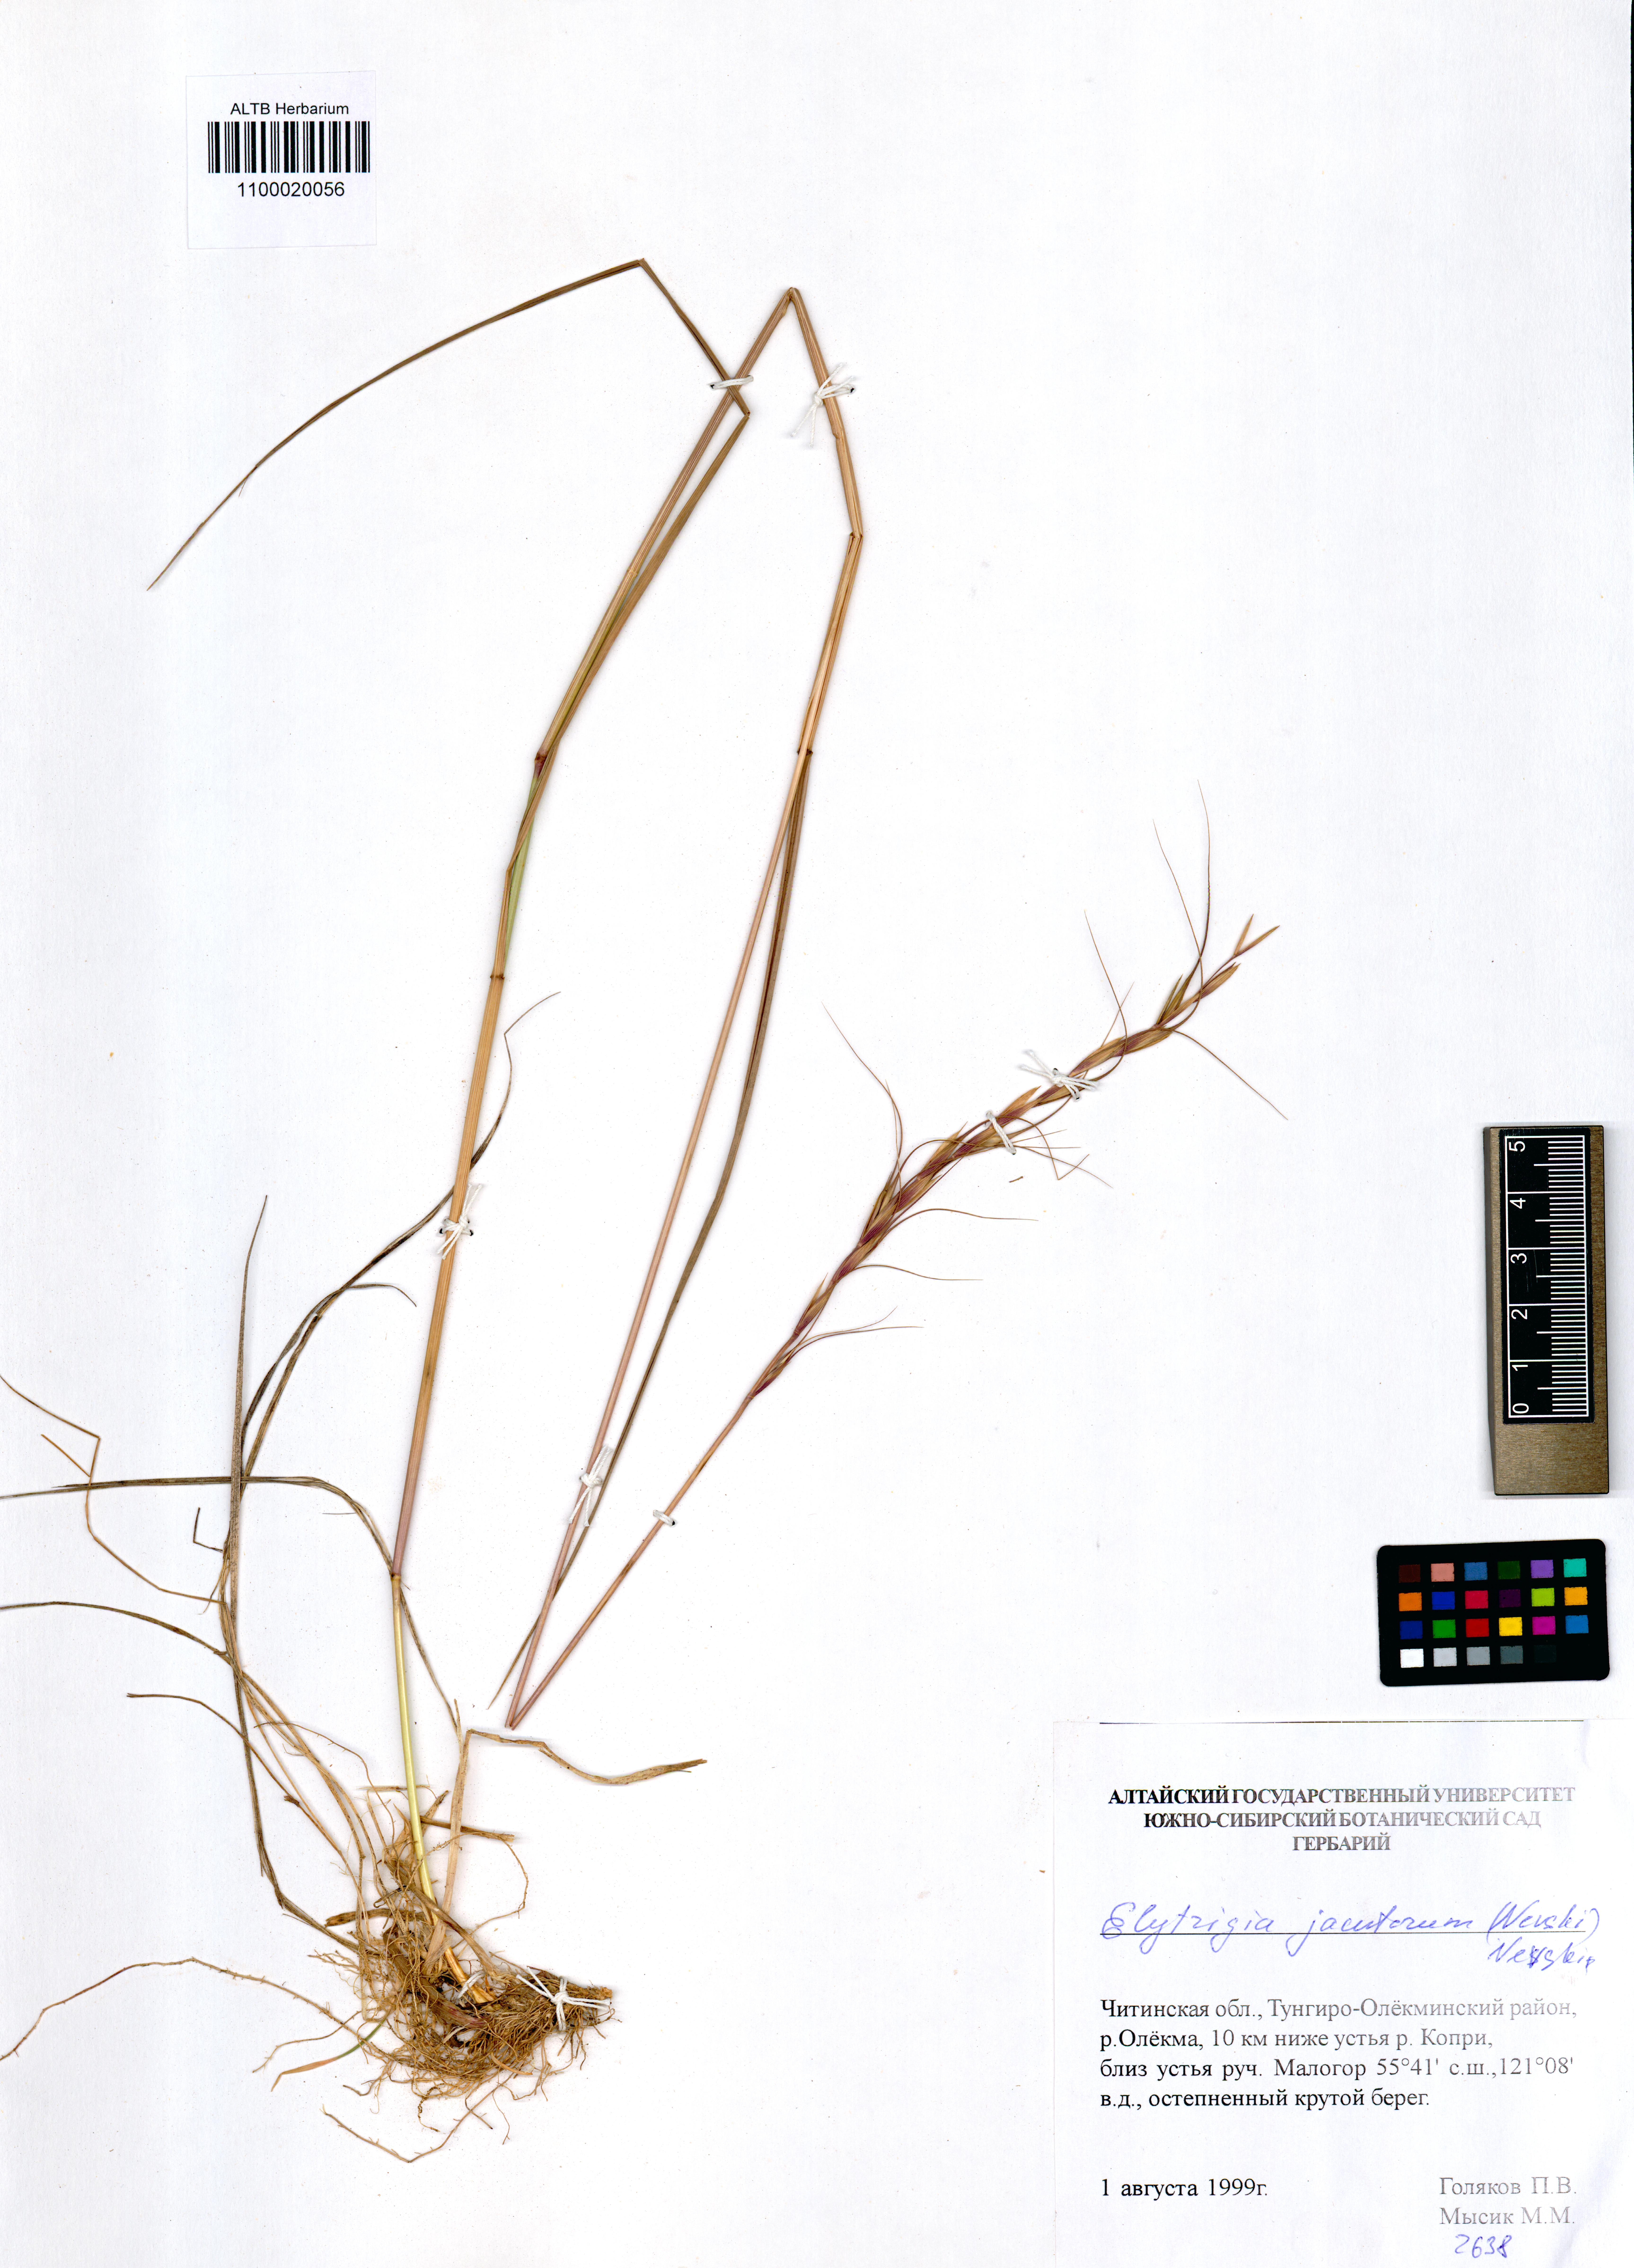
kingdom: Plantae
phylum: Tracheophyta
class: Liliopsida
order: Poales
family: Poaceae
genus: Pseudoroegneria
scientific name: Pseudoroegneria reflexiaristata
